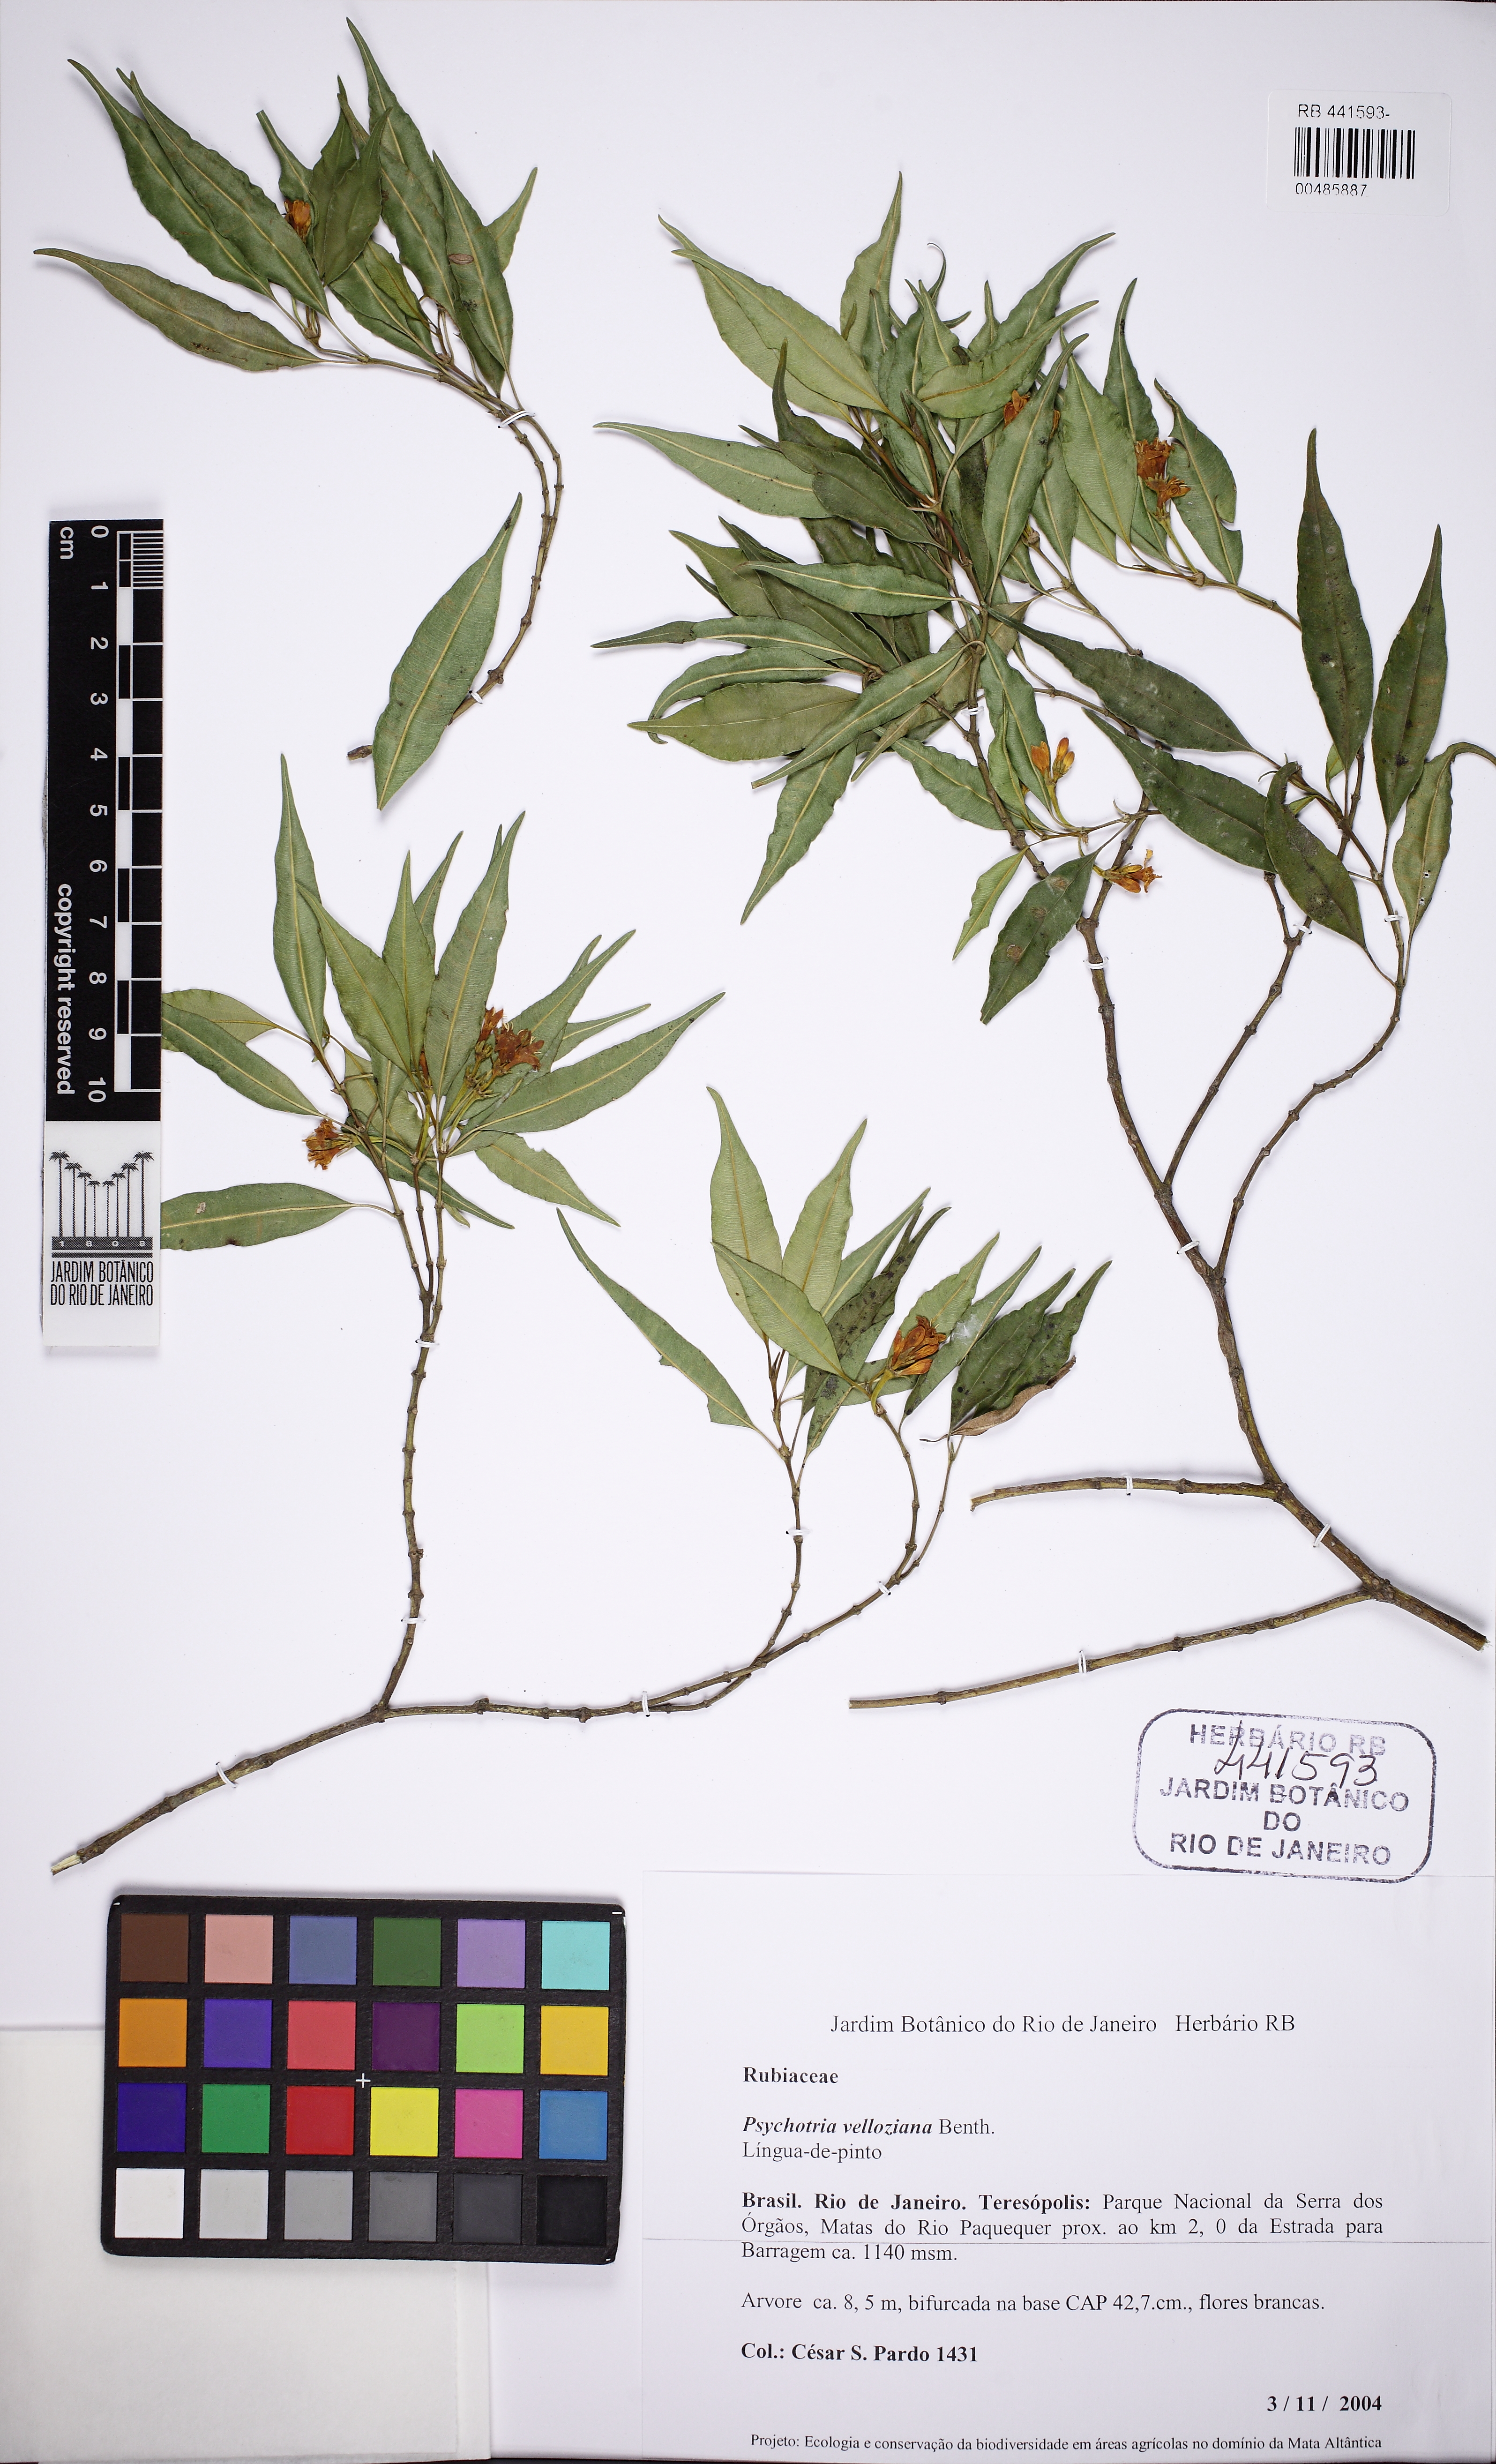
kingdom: Plantae
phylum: Tracheophyta
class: Magnoliopsida
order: Gentianales
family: Rubiaceae
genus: Palicourea
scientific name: Palicourea sessilis
